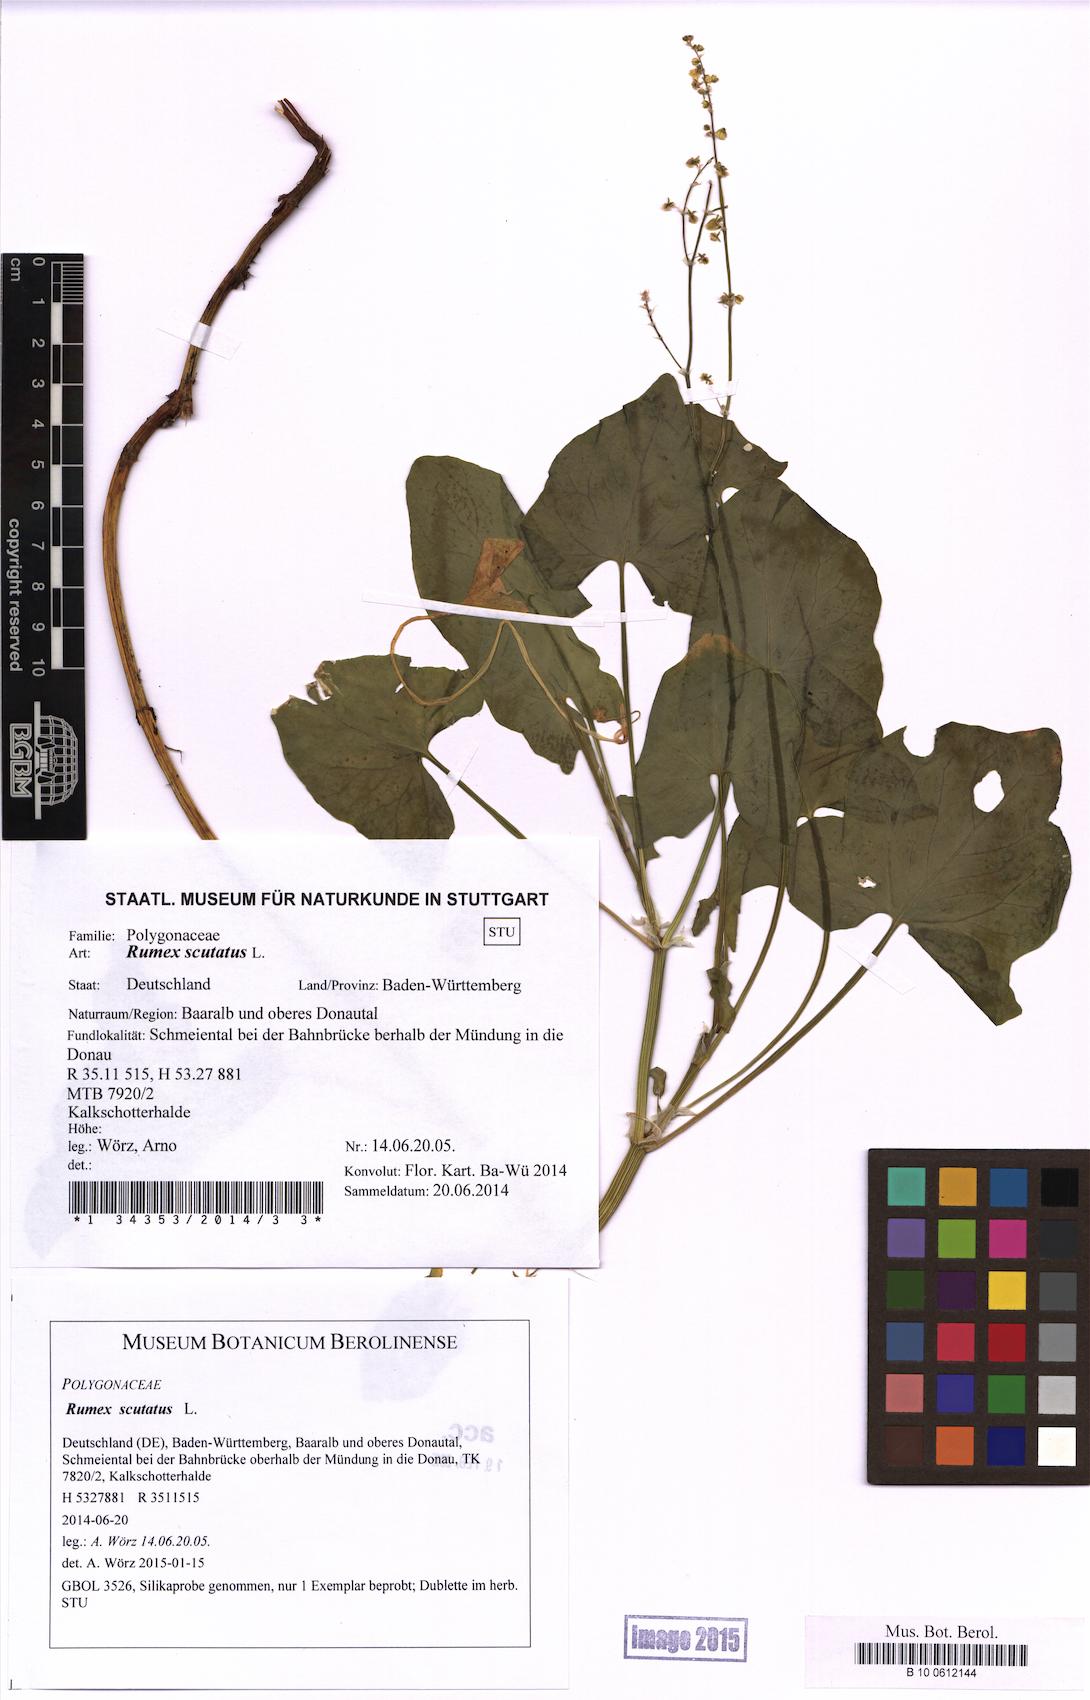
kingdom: Plantae
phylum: Tracheophyta
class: Magnoliopsida
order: Caryophyllales
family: Polygonaceae
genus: Rumex
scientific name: Rumex scutatus
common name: French sorrel
